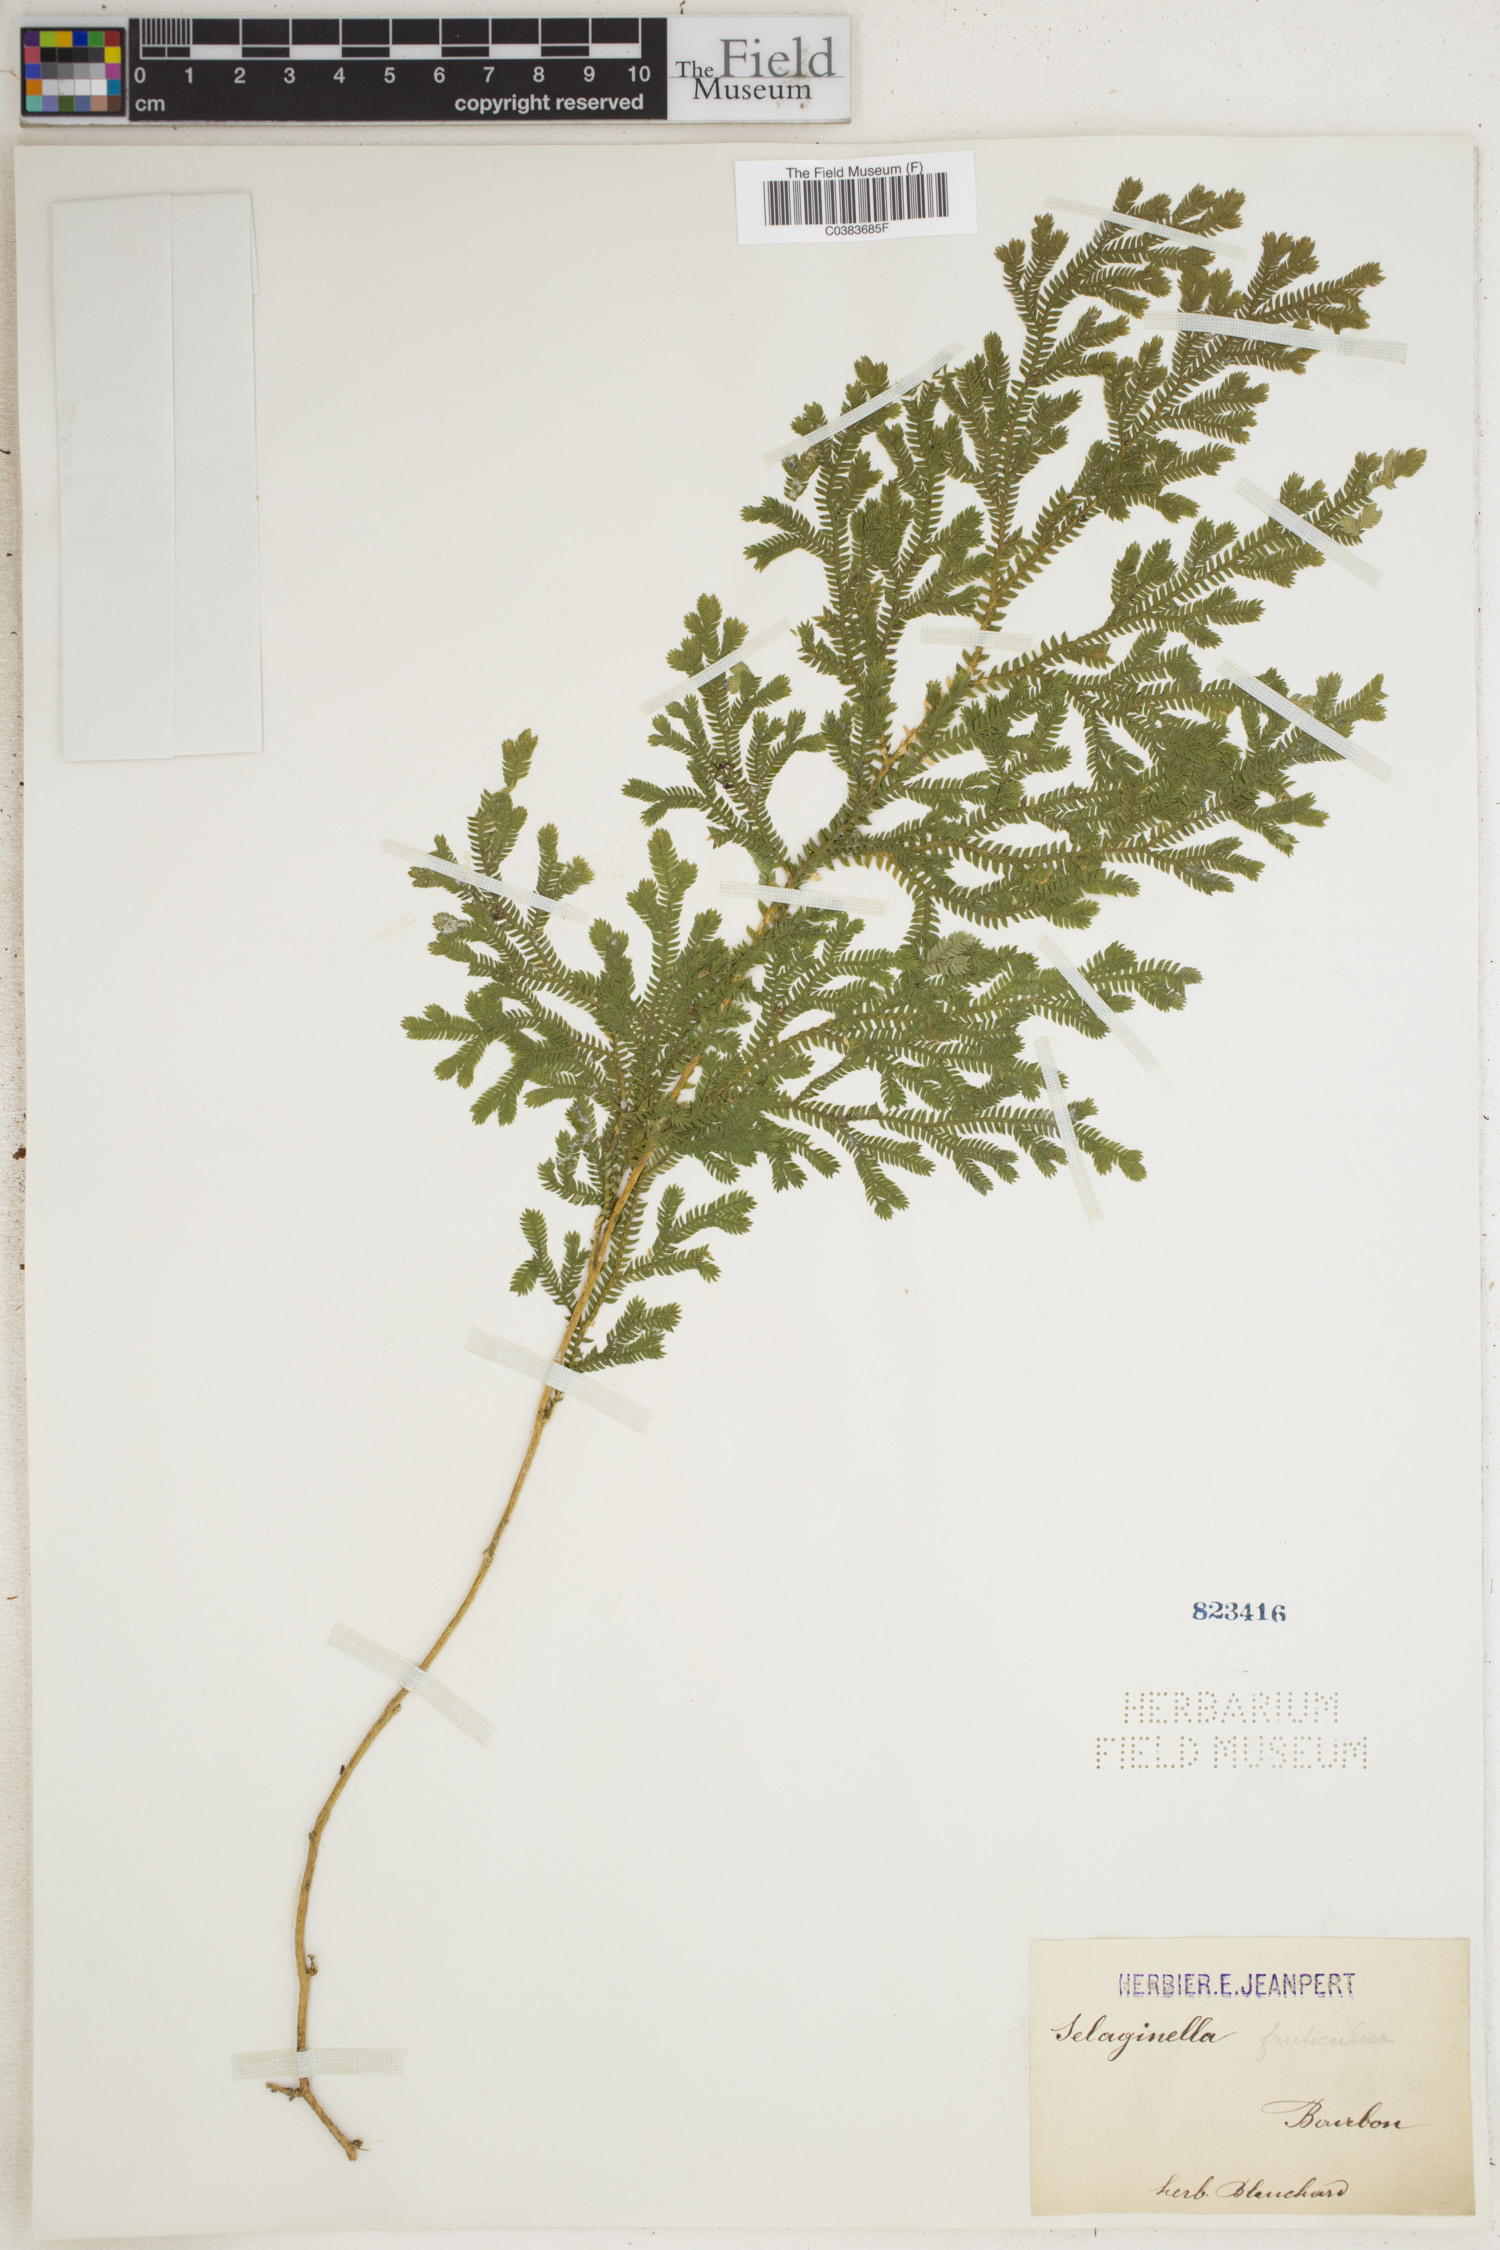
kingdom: Plantae
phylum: Tracheophyta
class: Lycopodiopsida
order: Selaginellales
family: Selaginellaceae
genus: Selaginella
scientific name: Selaginella fruticulosa
